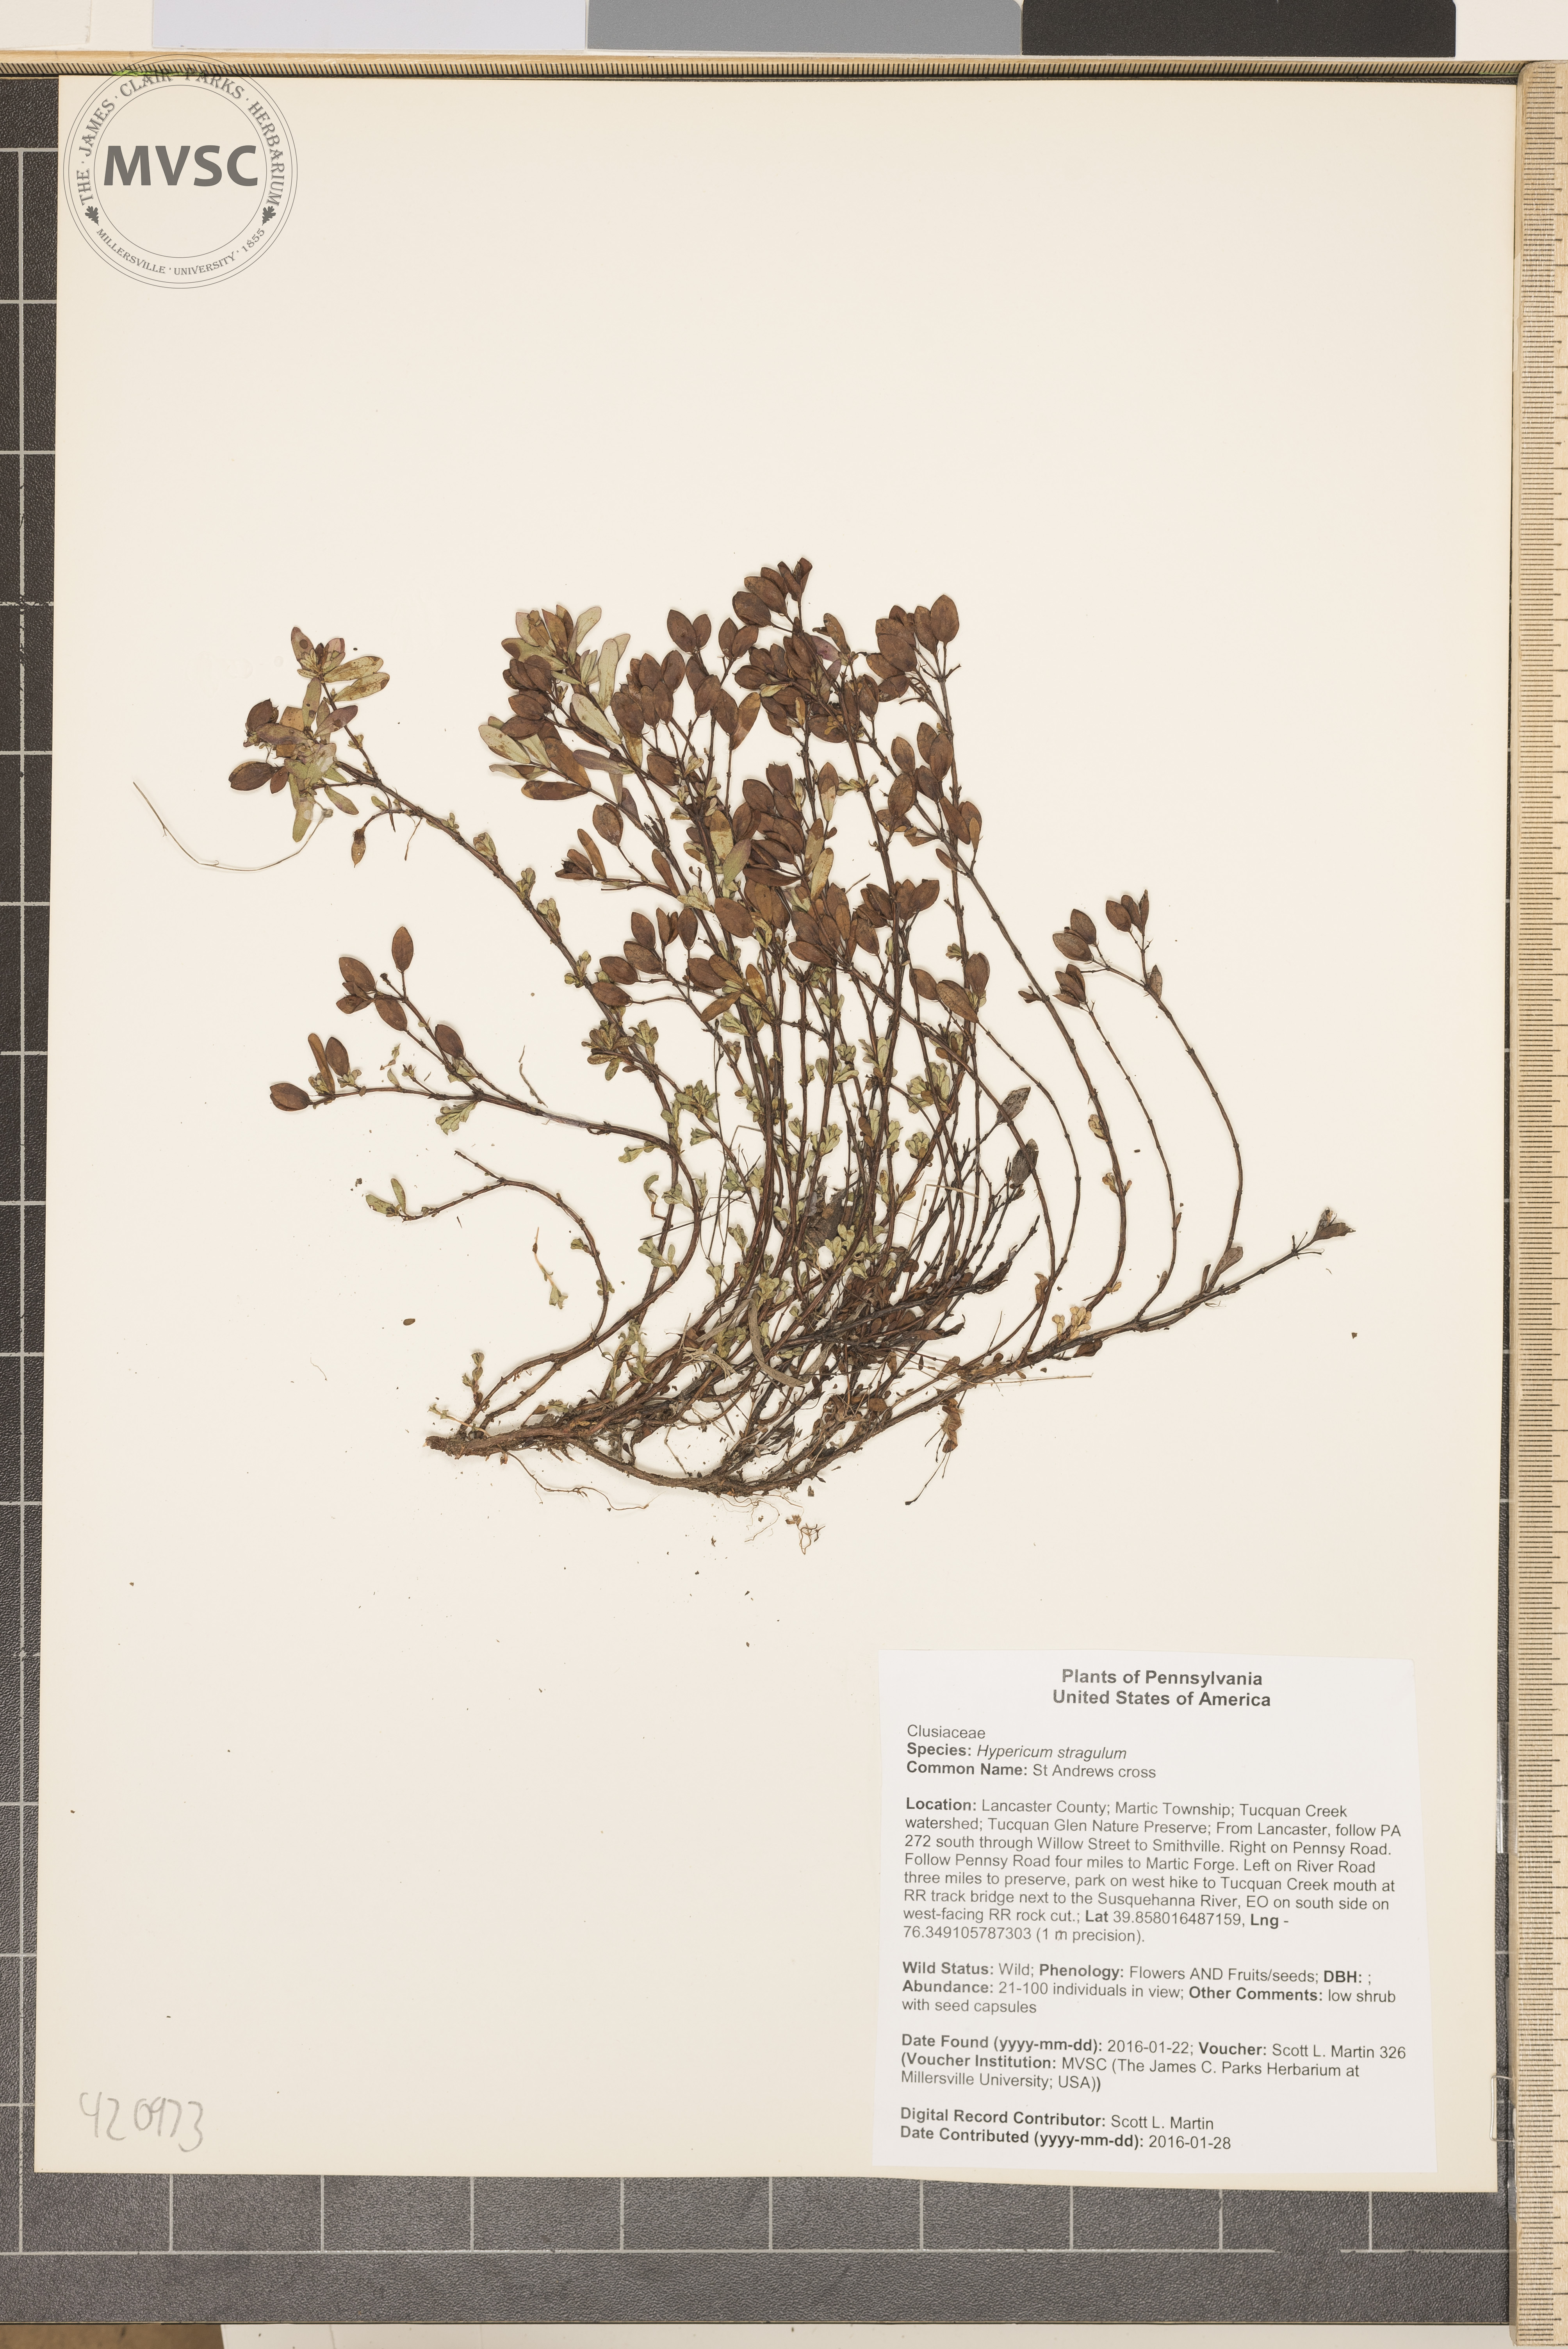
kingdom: Plantae
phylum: Tracheophyta
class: Magnoliopsida
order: Malpighiales
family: Hypericaceae
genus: Hypericum
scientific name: Hypericum hypericoides
